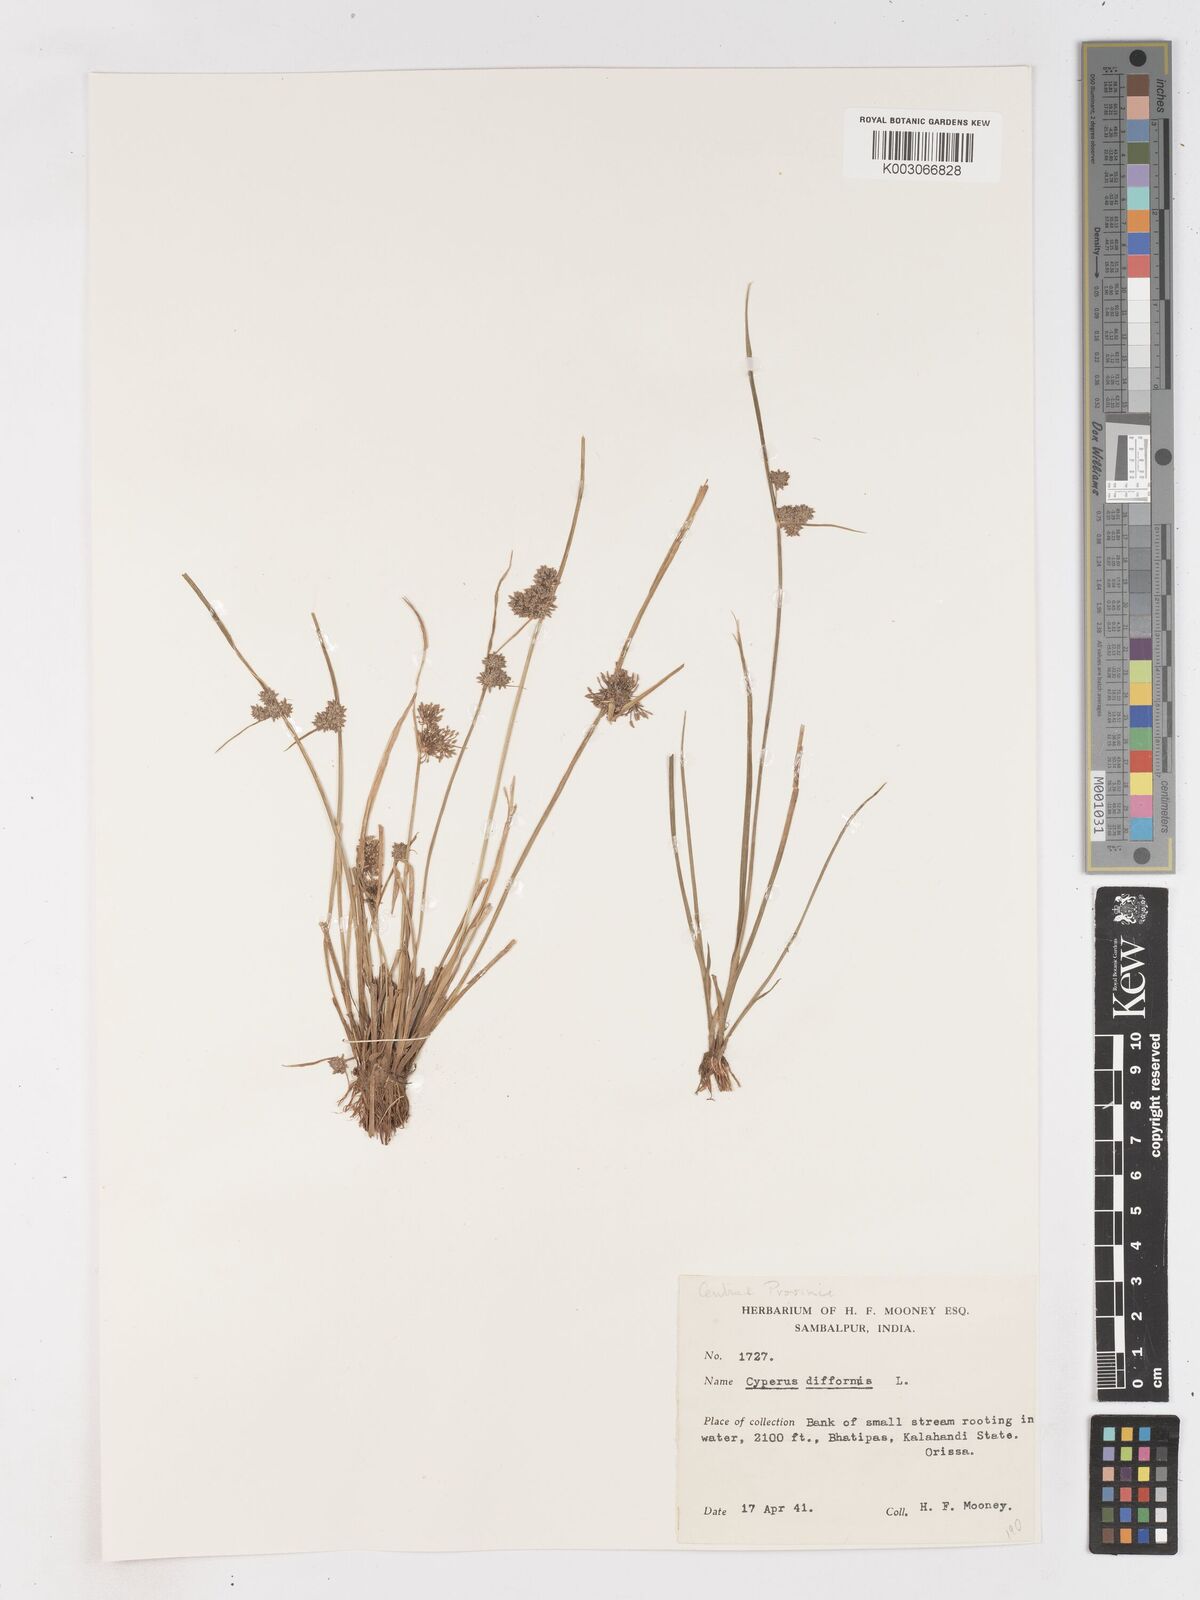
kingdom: Plantae
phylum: Tracheophyta
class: Liliopsida
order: Poales
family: Cyperaceae
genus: Cyperus
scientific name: Cyperus difformis
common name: Variable flatsedge
